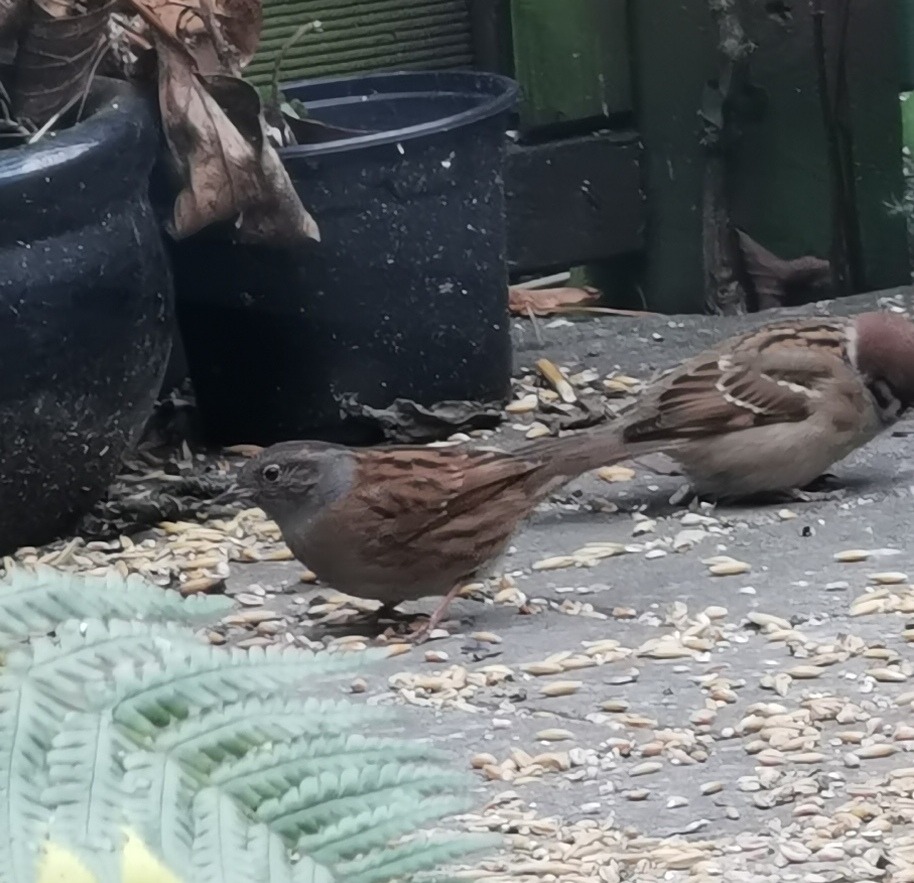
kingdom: Animalia
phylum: Chordata
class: Aves
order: Passeriformes
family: Prunellidae
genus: Prunella
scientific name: Prunella modularis
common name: Jernspurv
